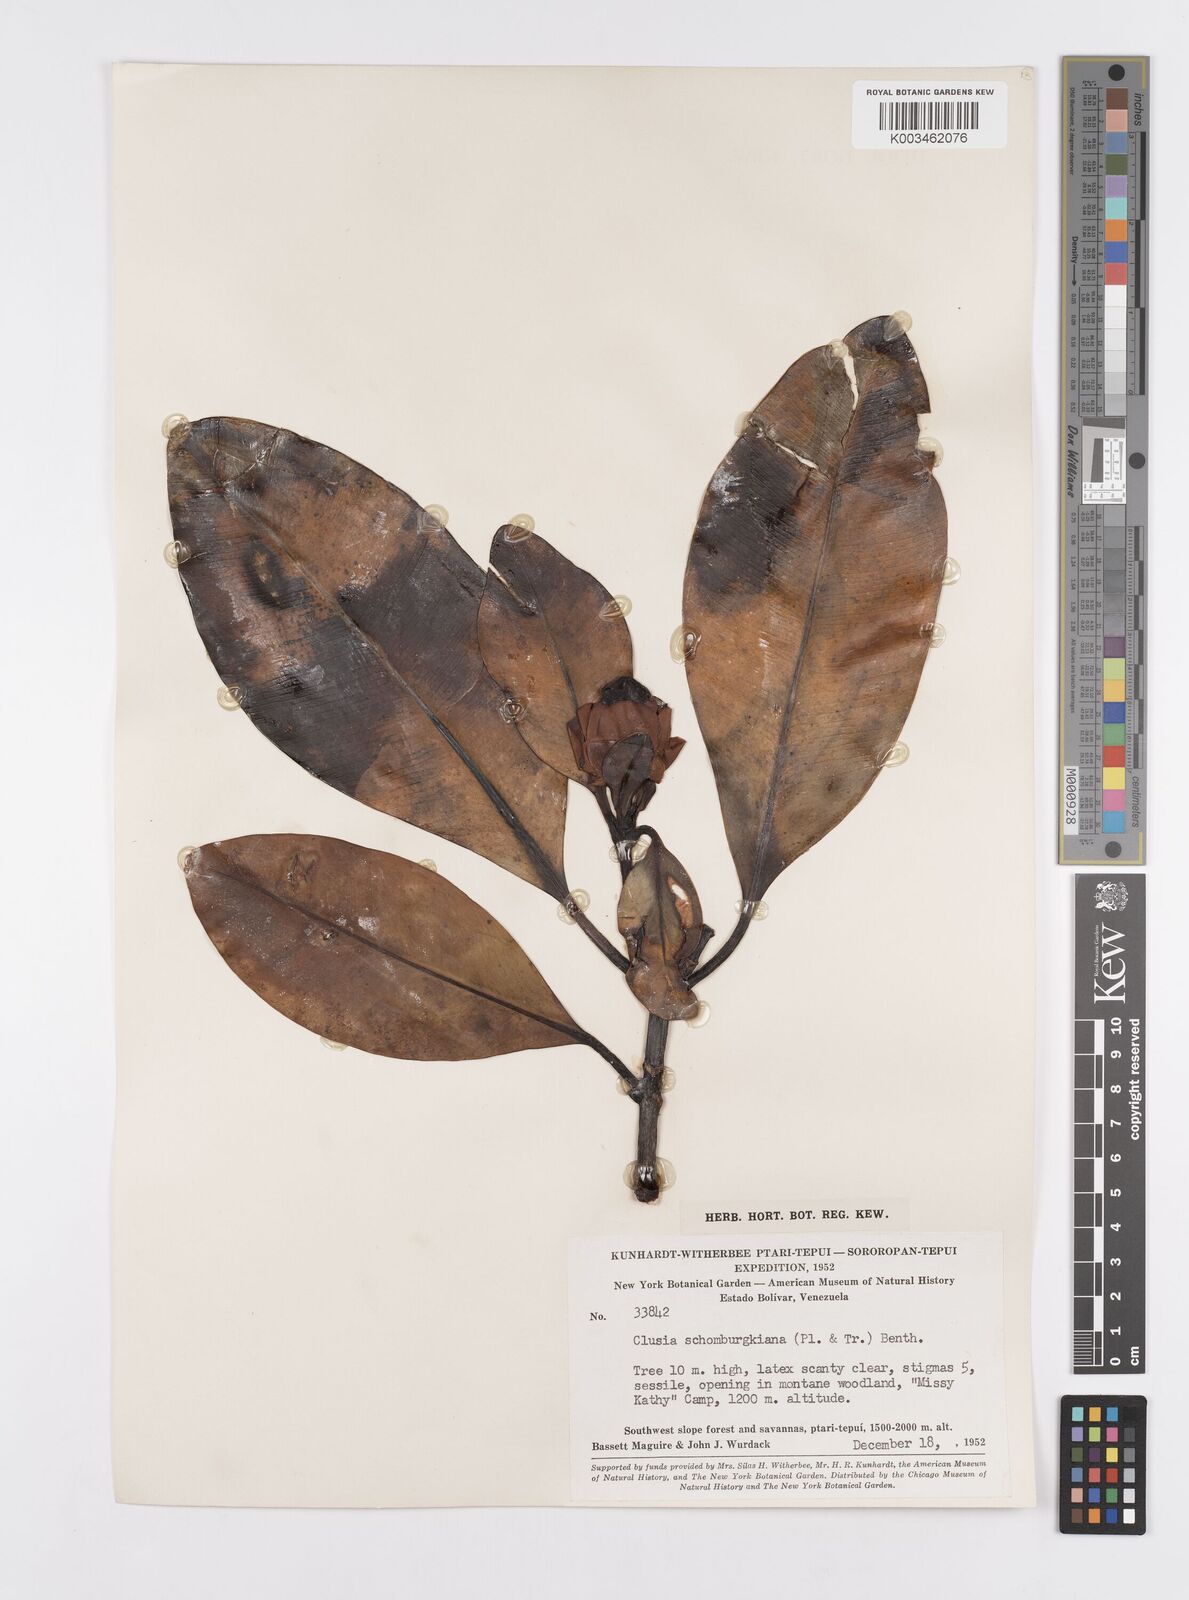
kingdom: Plantae
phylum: Tracheophyta
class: Magnoliopsida
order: Malpighiales
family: Clusiaceae
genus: Clusia
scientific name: Clusia schomburgkiana
